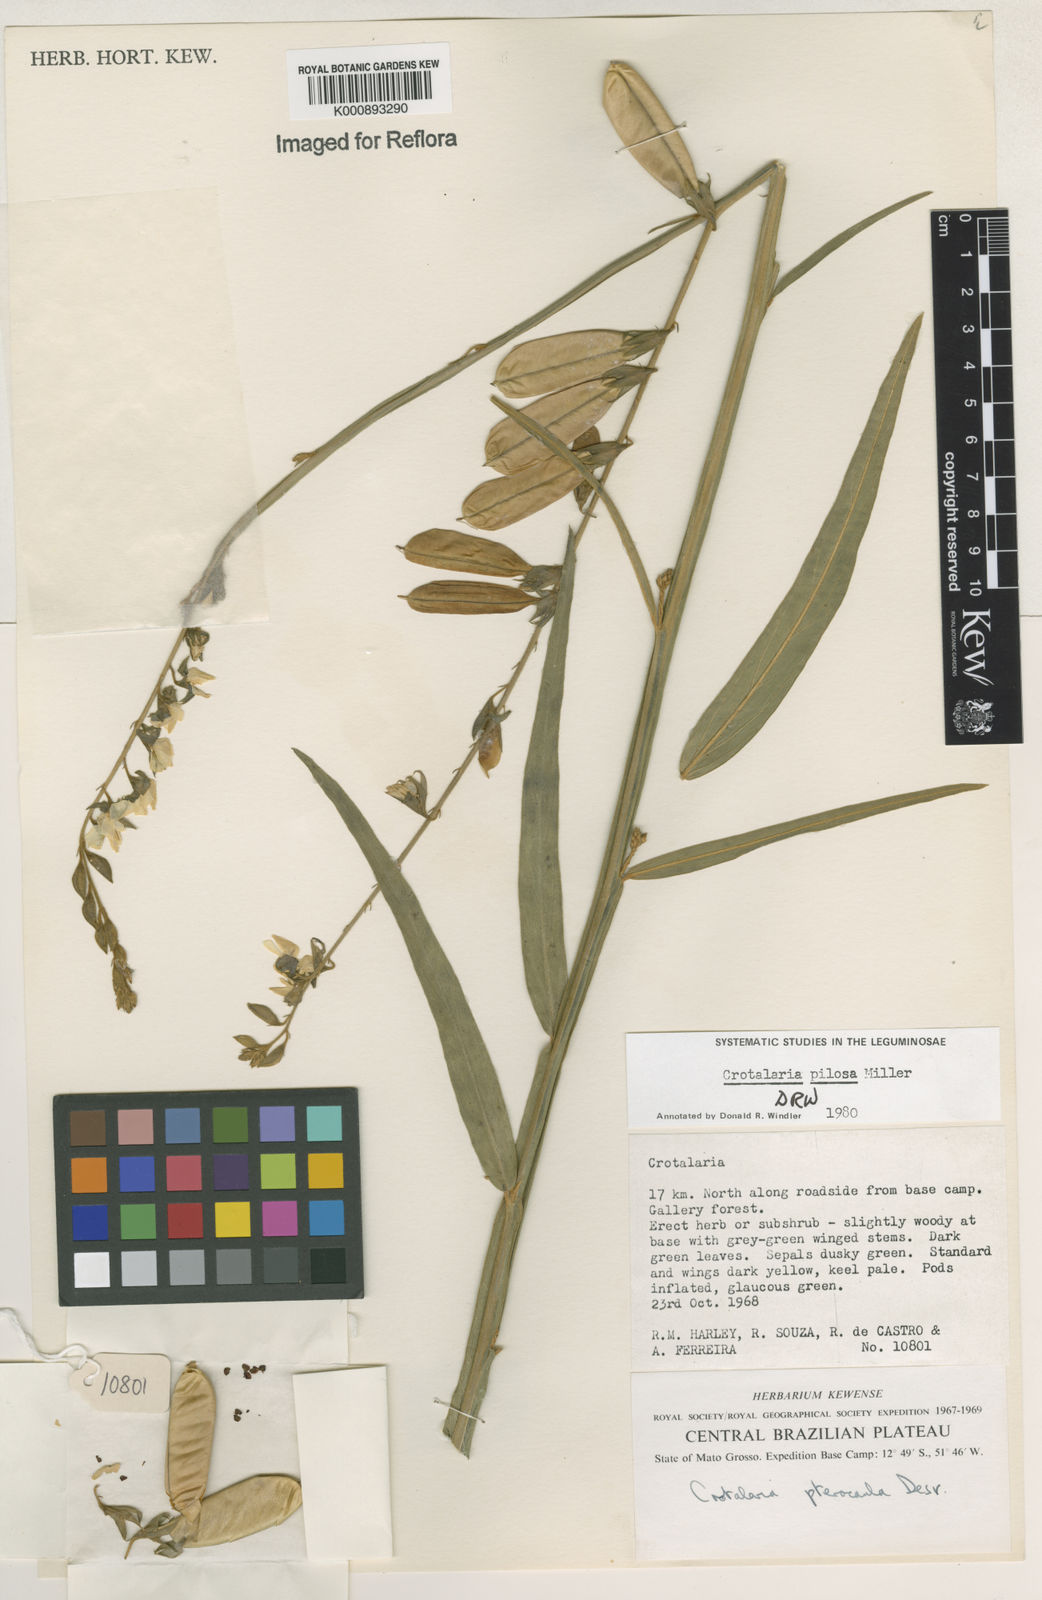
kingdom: Plantae
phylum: Tracheophyta
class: Magnoliopsida
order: Fabales
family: Fabaceae
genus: Crotalaria
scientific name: Crotalaria pilosa
